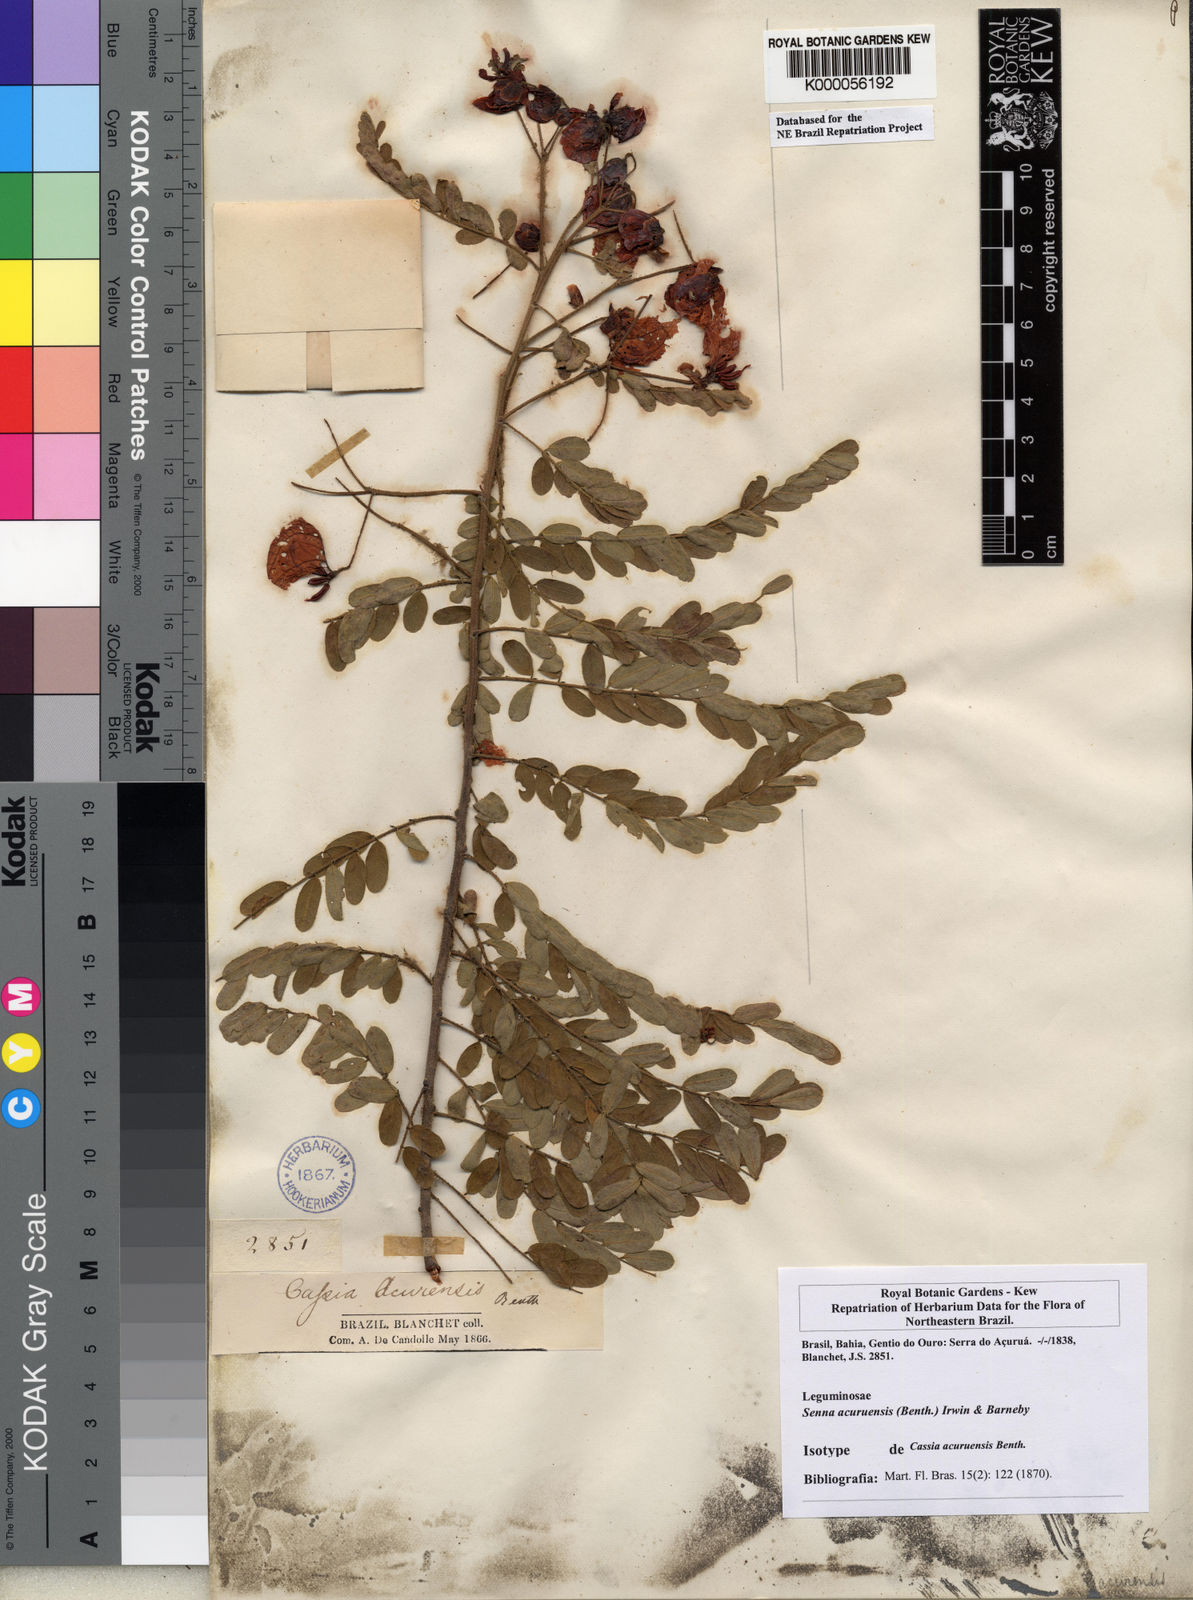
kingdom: Plantae
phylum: Tracheophyta
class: Magnoliopsida
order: Fabales
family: Fabaceae
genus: Senna
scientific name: Senna acuruensis
